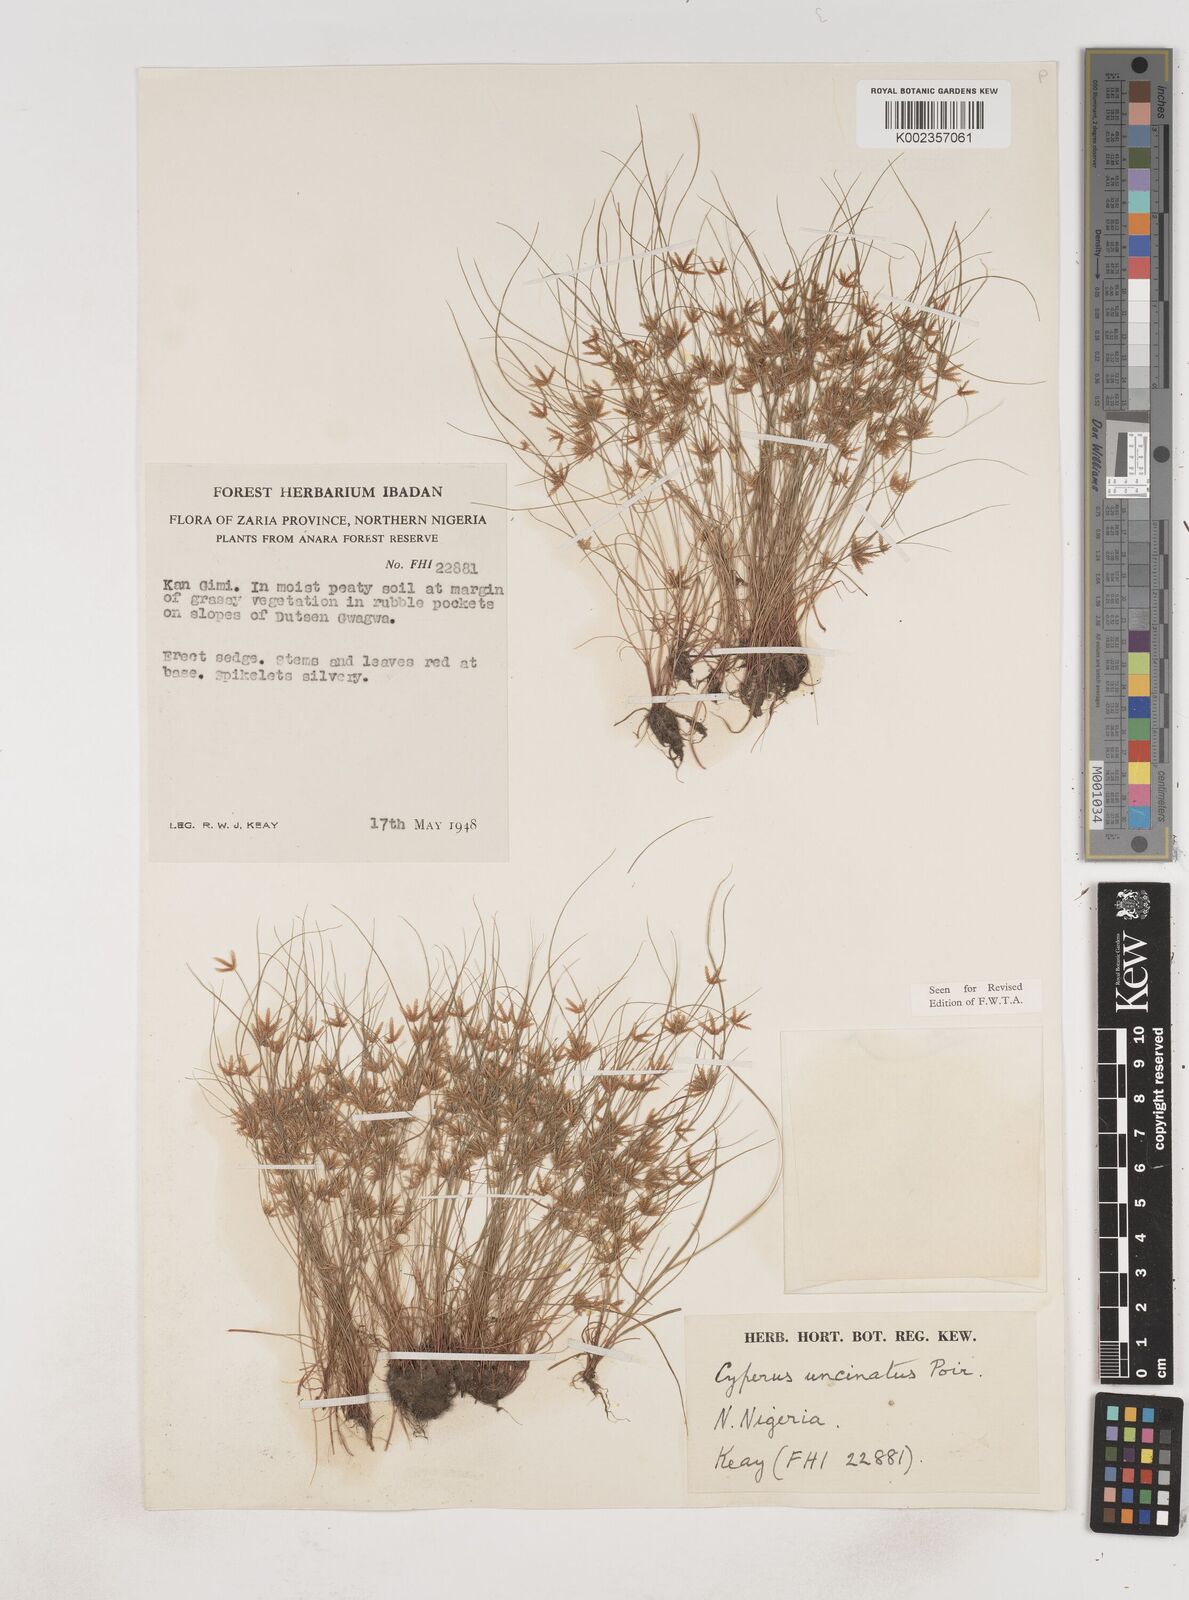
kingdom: Plantae
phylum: Tracheophyta
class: Liliopsida
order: Poales
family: Cyperaceae
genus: Cyperus
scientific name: Cyperus
